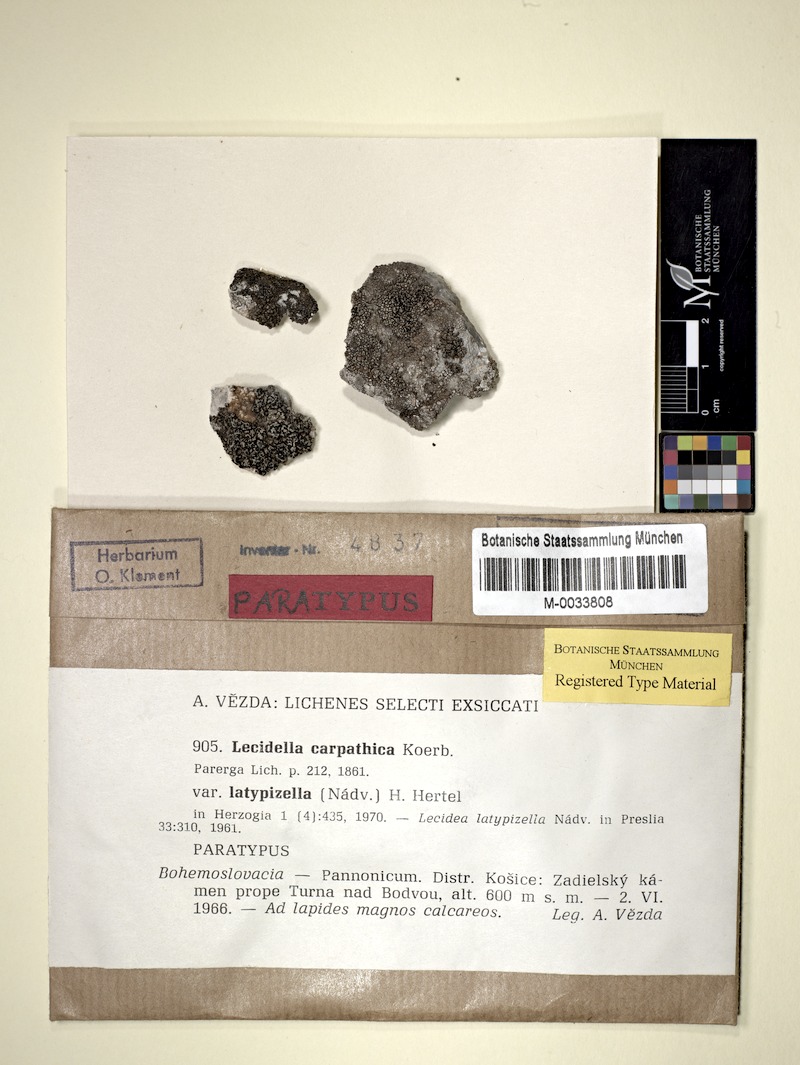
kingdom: Fungi
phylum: Ascomycota
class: Lecanoromycetes
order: Lecanorales
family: Lecanoraceae
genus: Lecidella
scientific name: Lecidella carpathica
